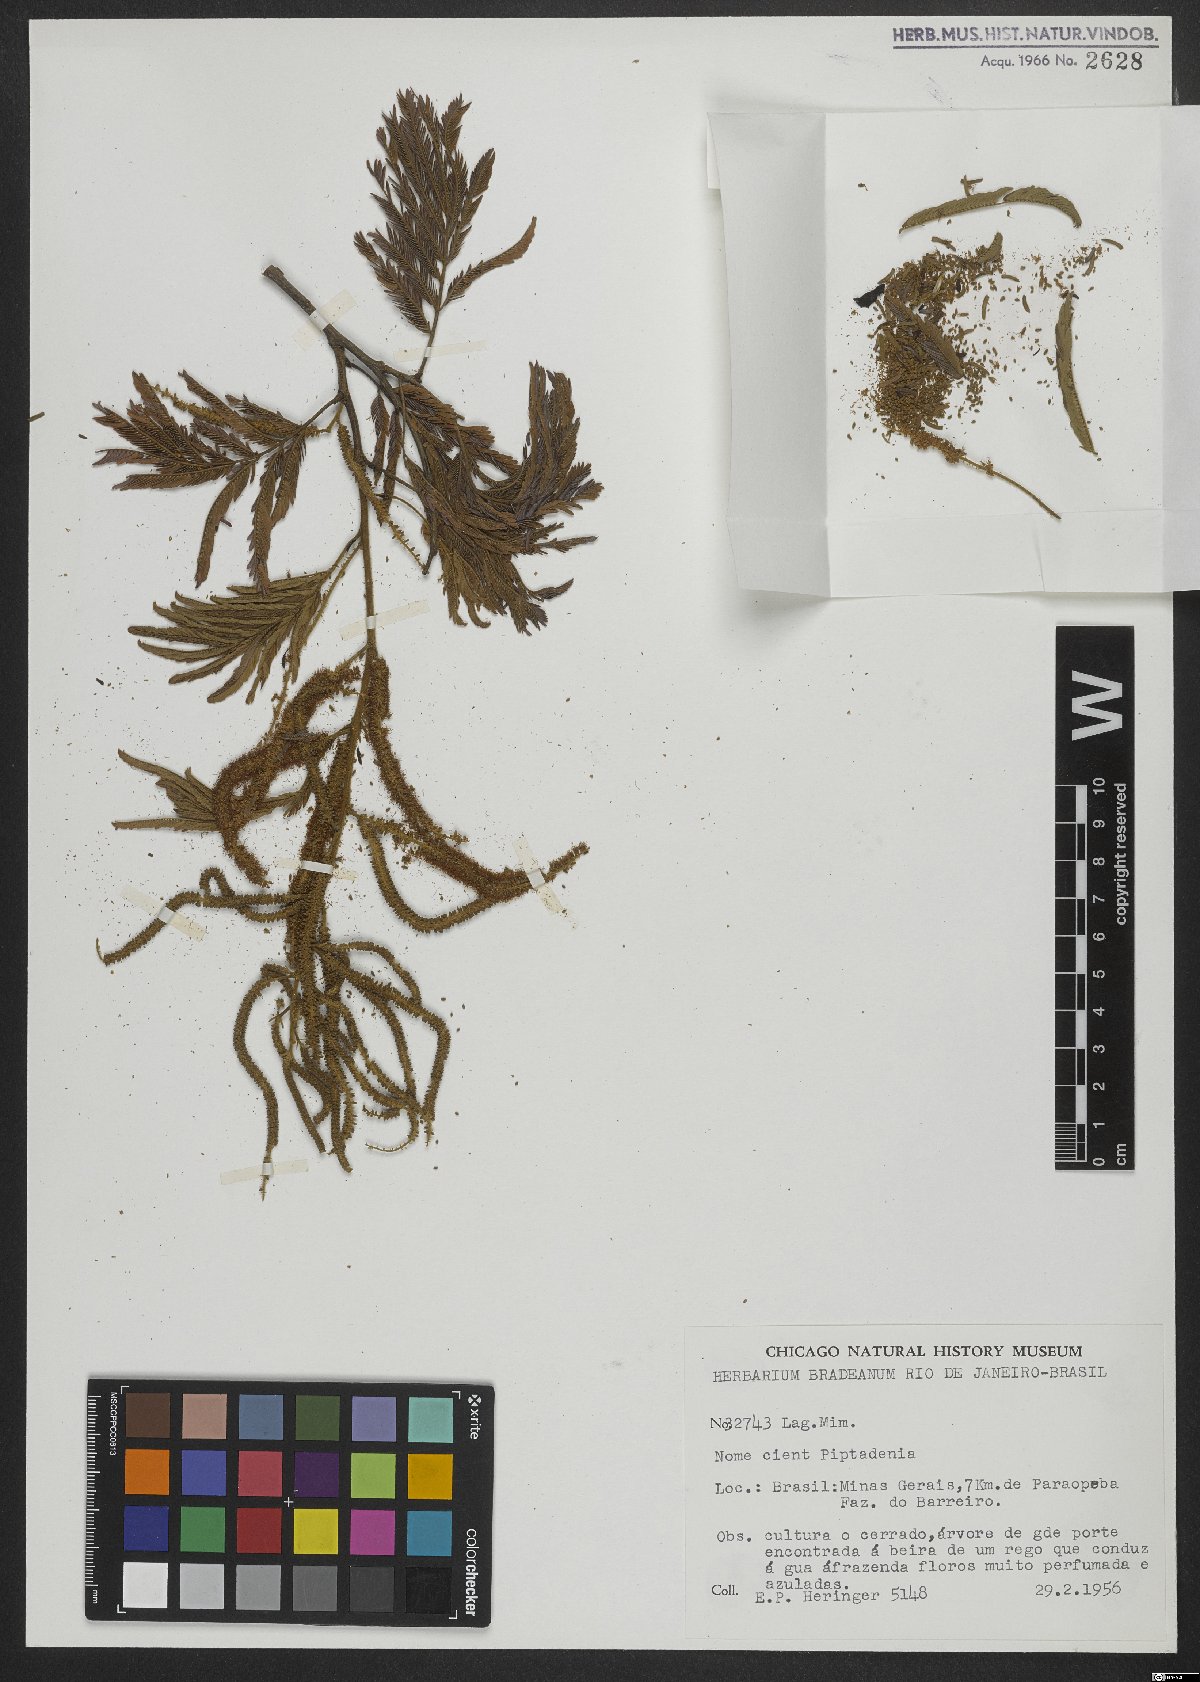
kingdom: Plantae
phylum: Tracheophyta
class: Magnoliopsida
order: Fabales
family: Fabaceae
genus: Piptadenia
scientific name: Piptadenia
